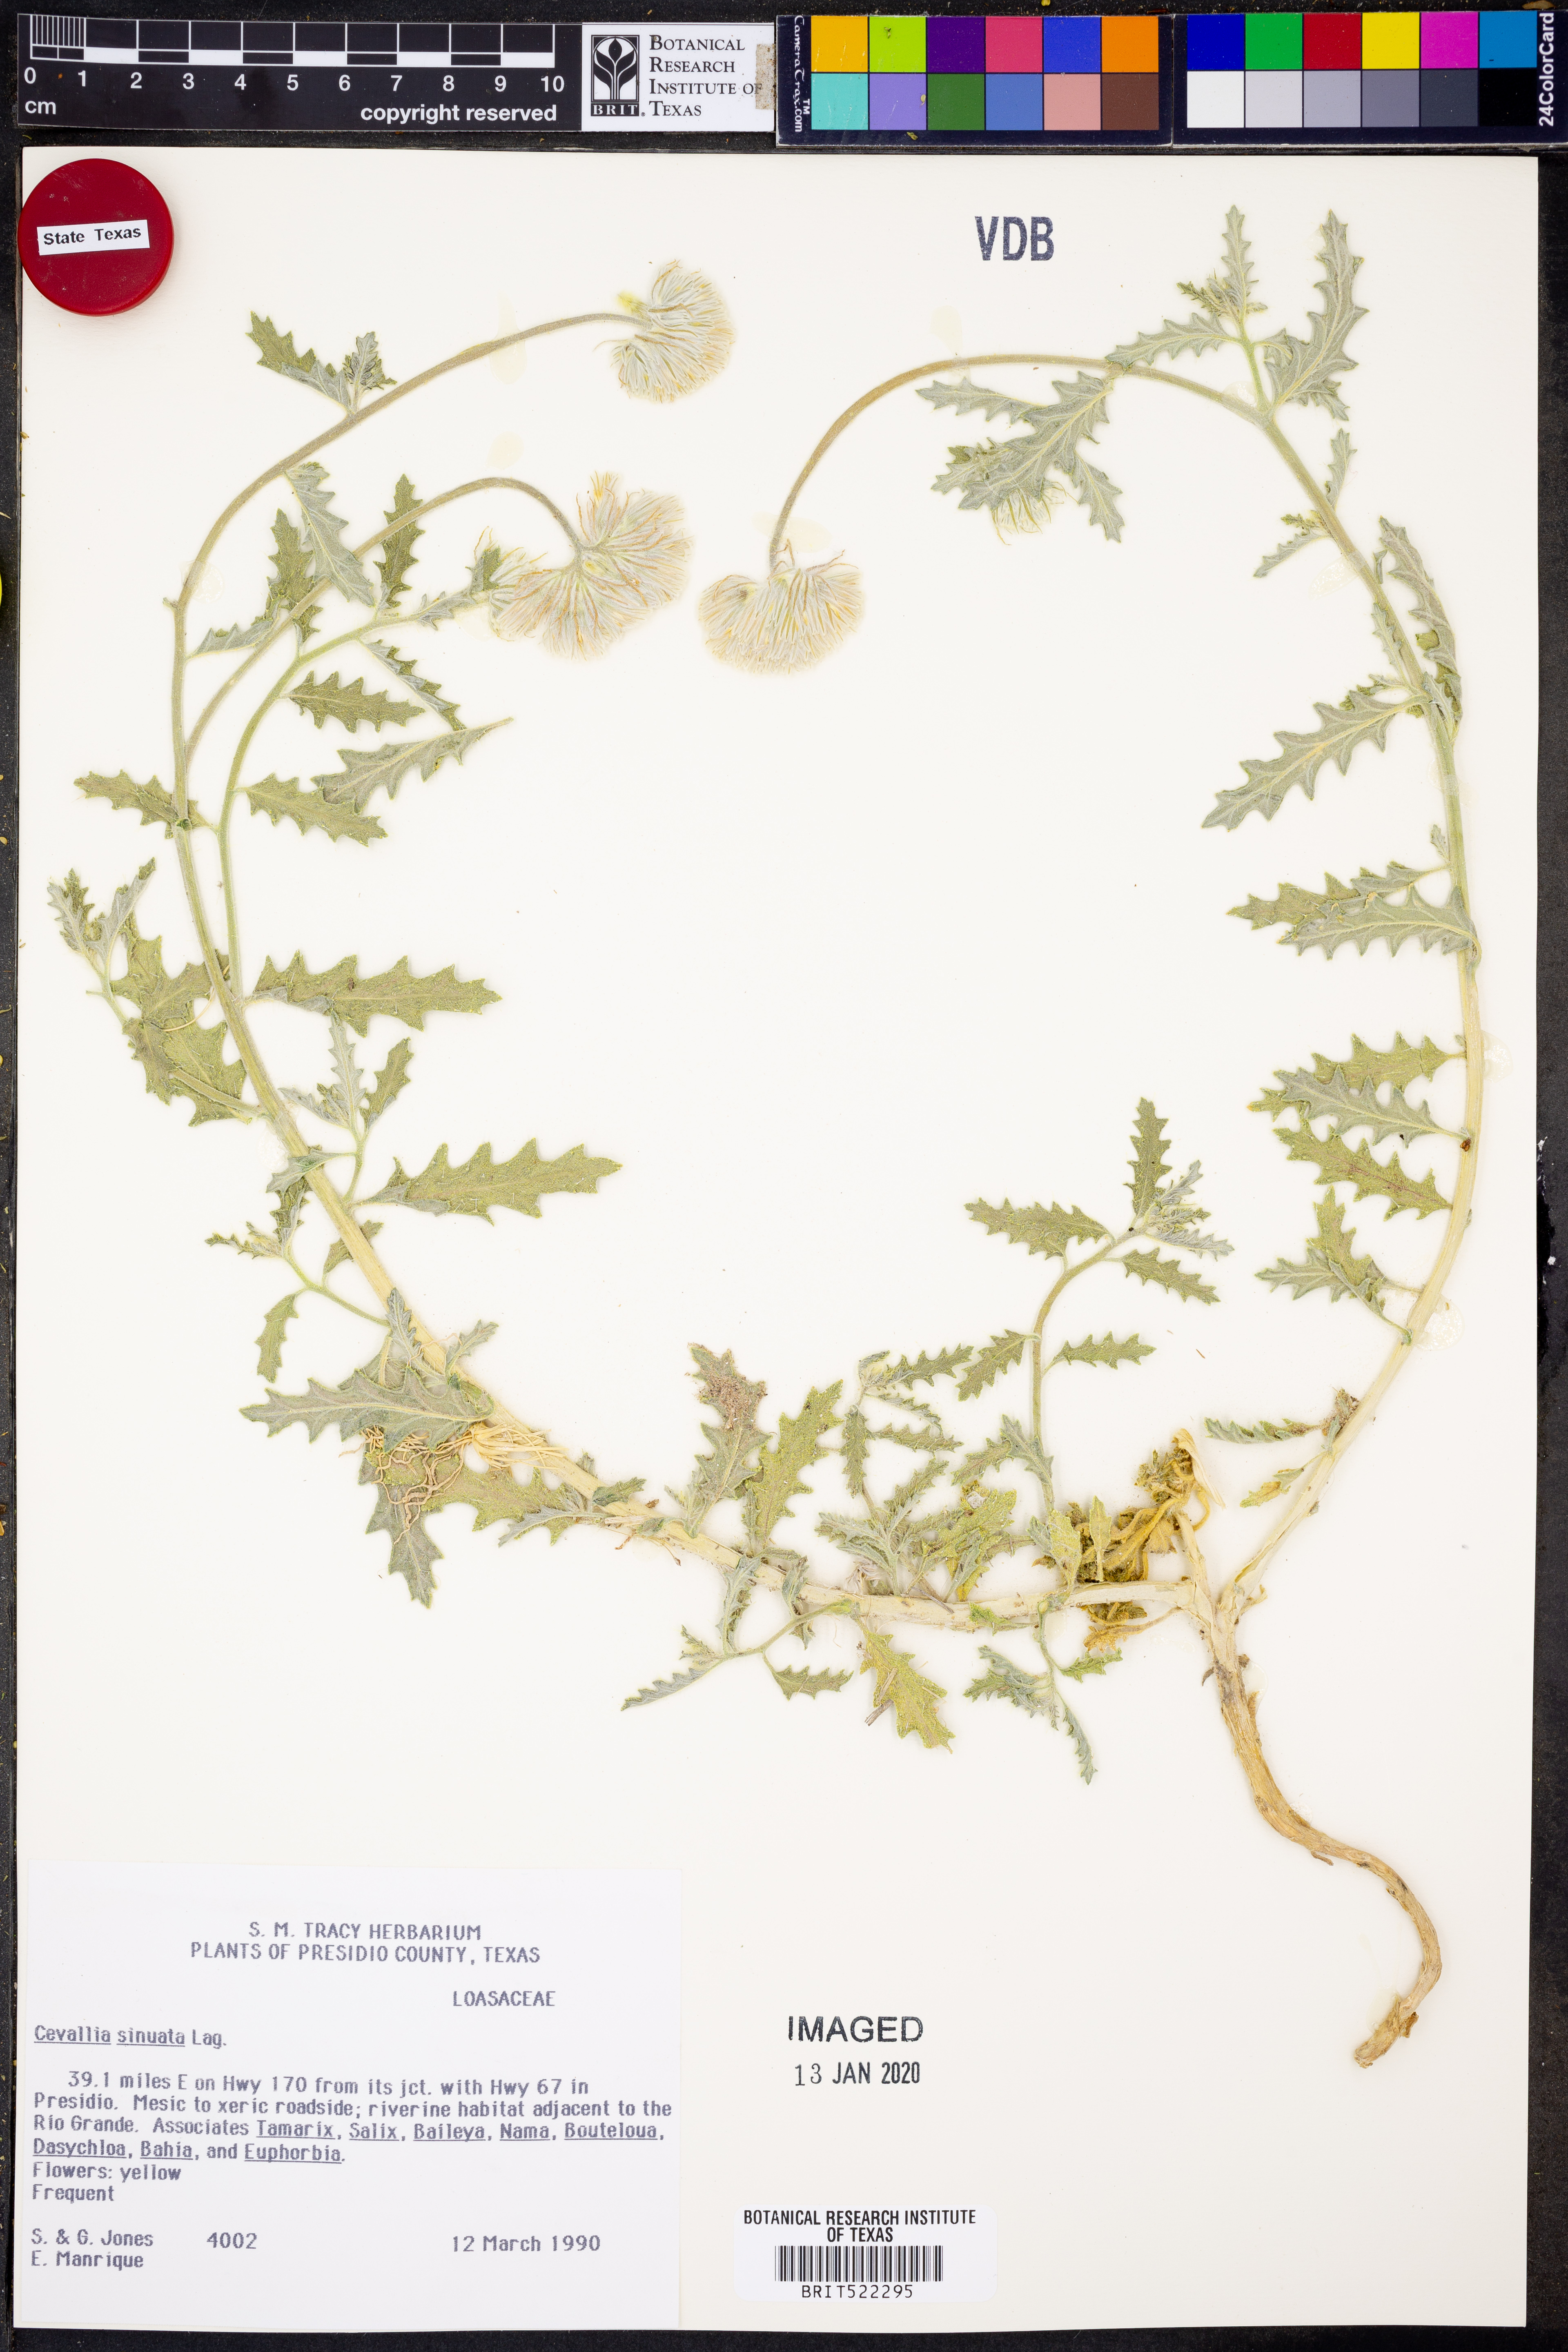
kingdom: Plantae
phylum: Tracheophyta
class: Magnoliopsida
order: Cornales
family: Loasaceae
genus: Cevallia
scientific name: Cevallia sinuata
